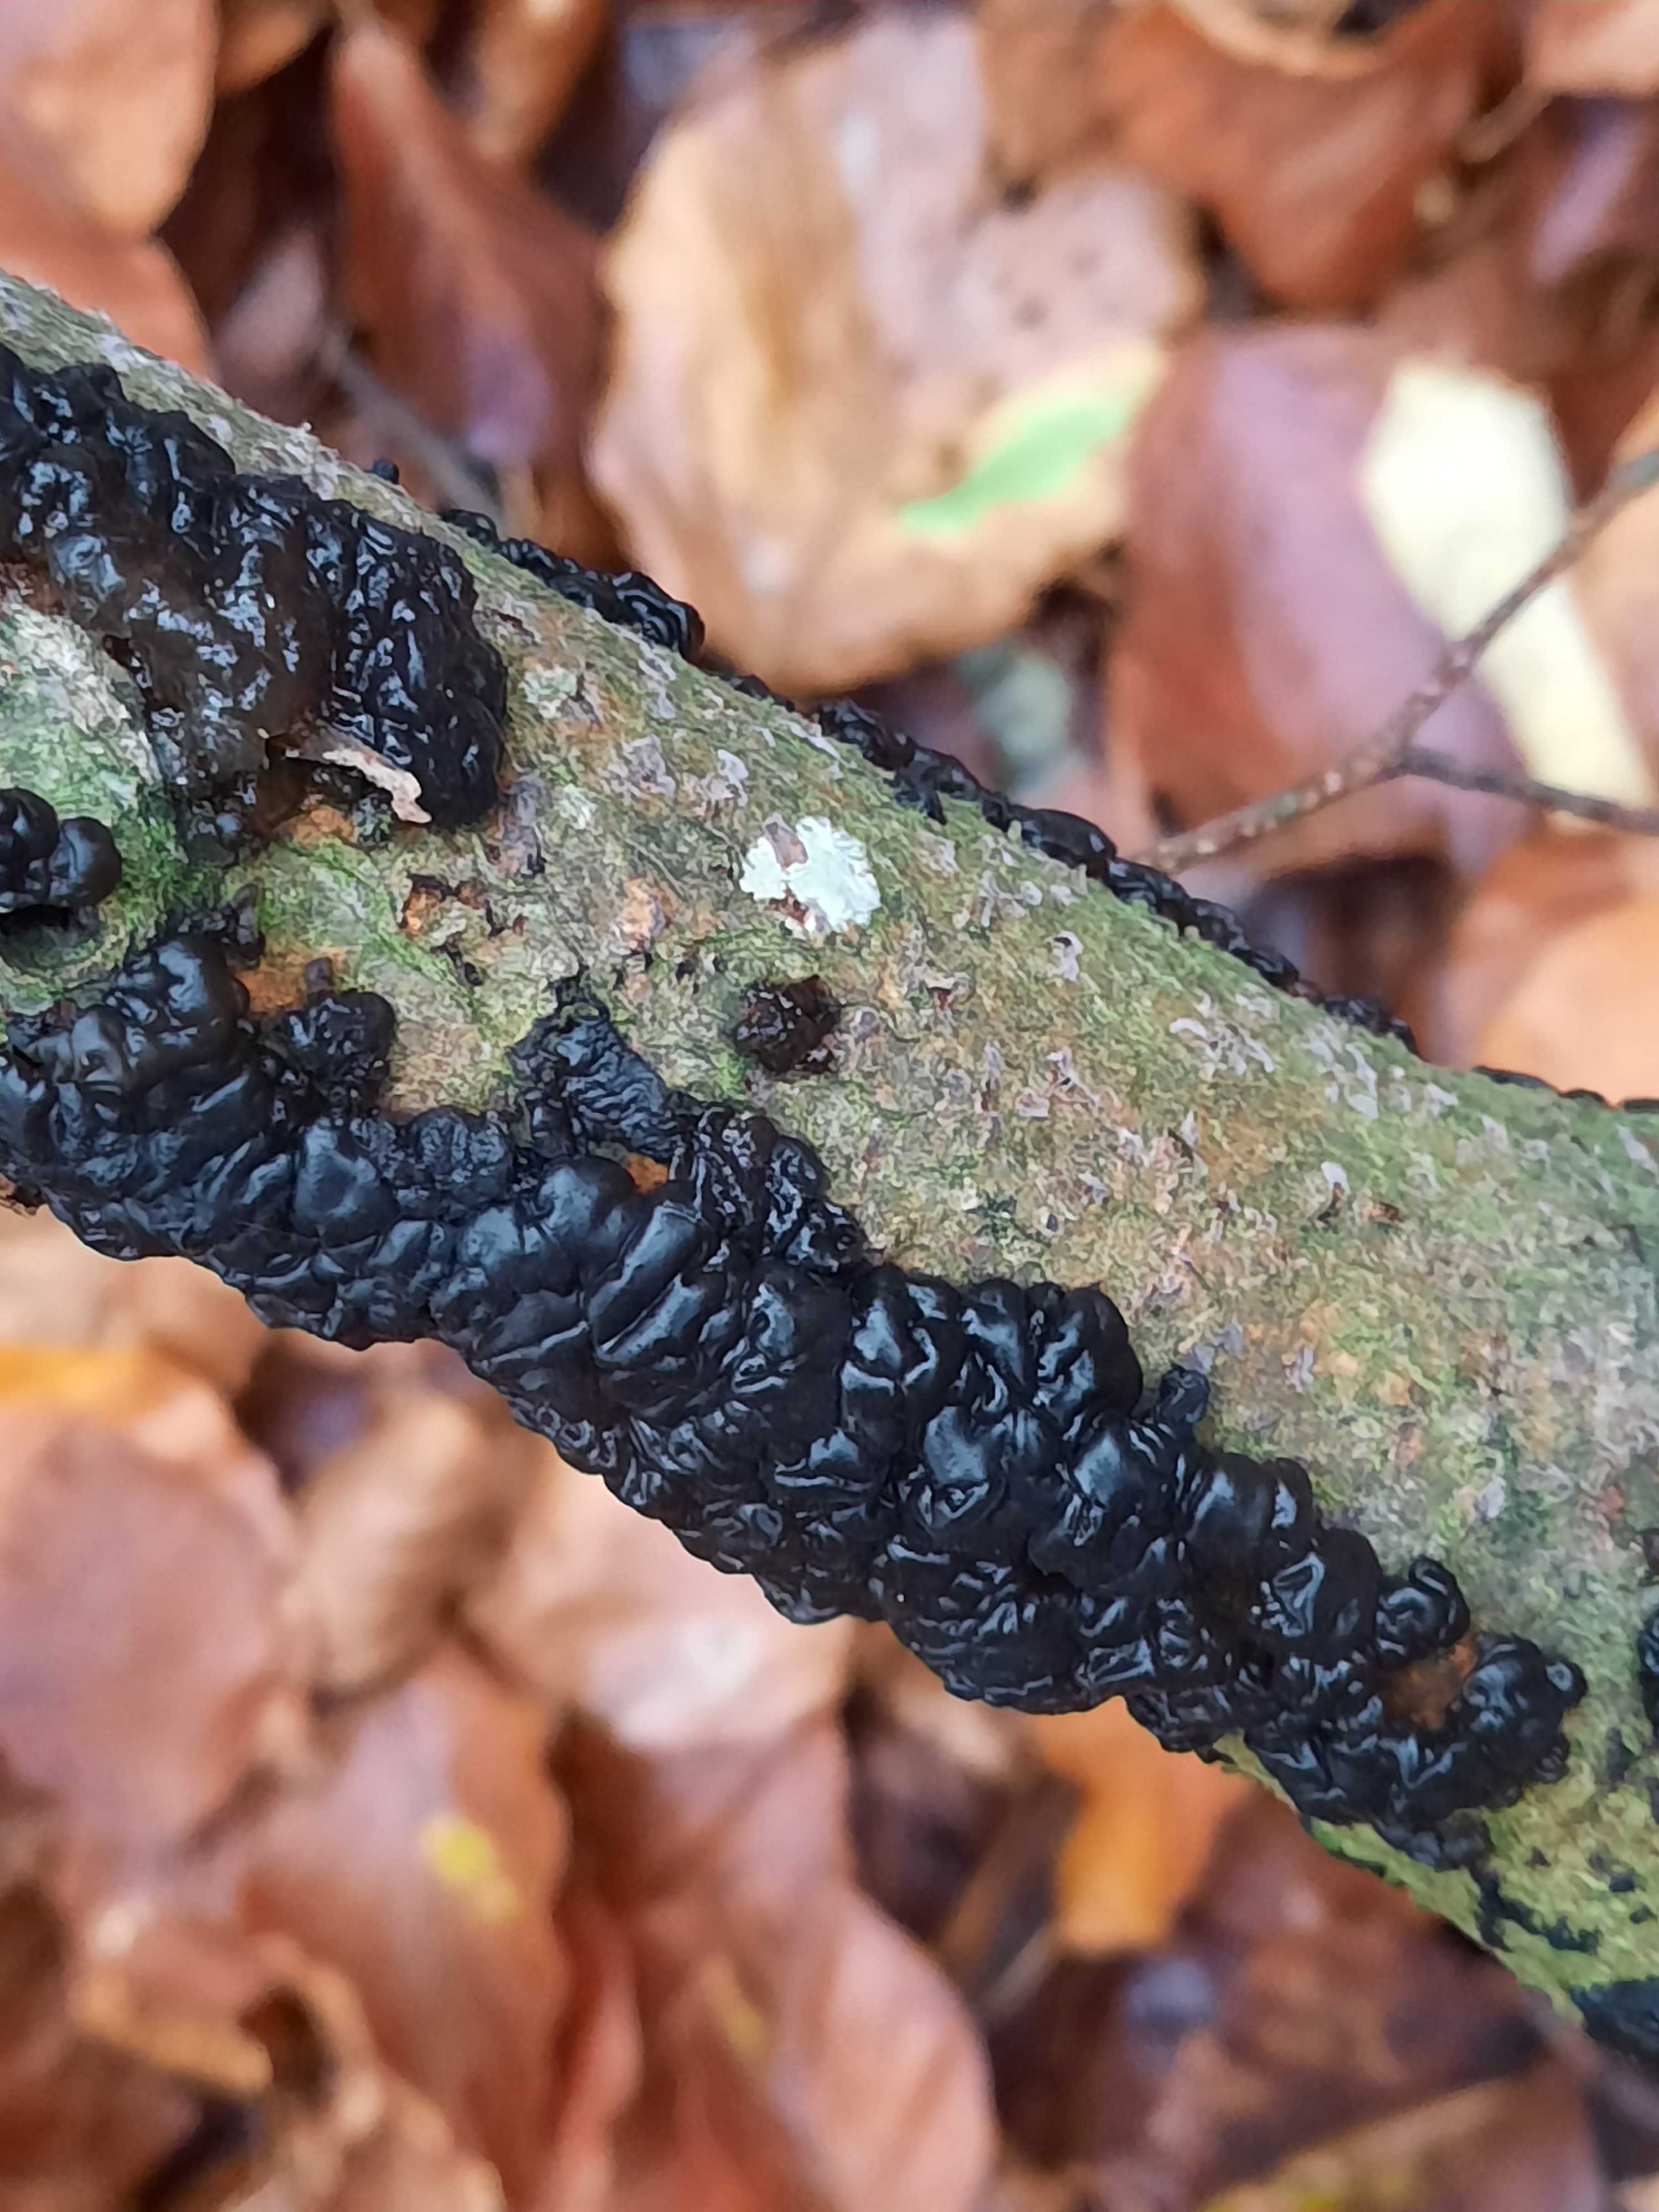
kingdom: Fungi
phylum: Basidiomycota
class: Agaricomycetes
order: Auriculariales
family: Auriculariaceae
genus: Exidia
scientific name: Exidia nigricans
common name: almindelig bævretop
